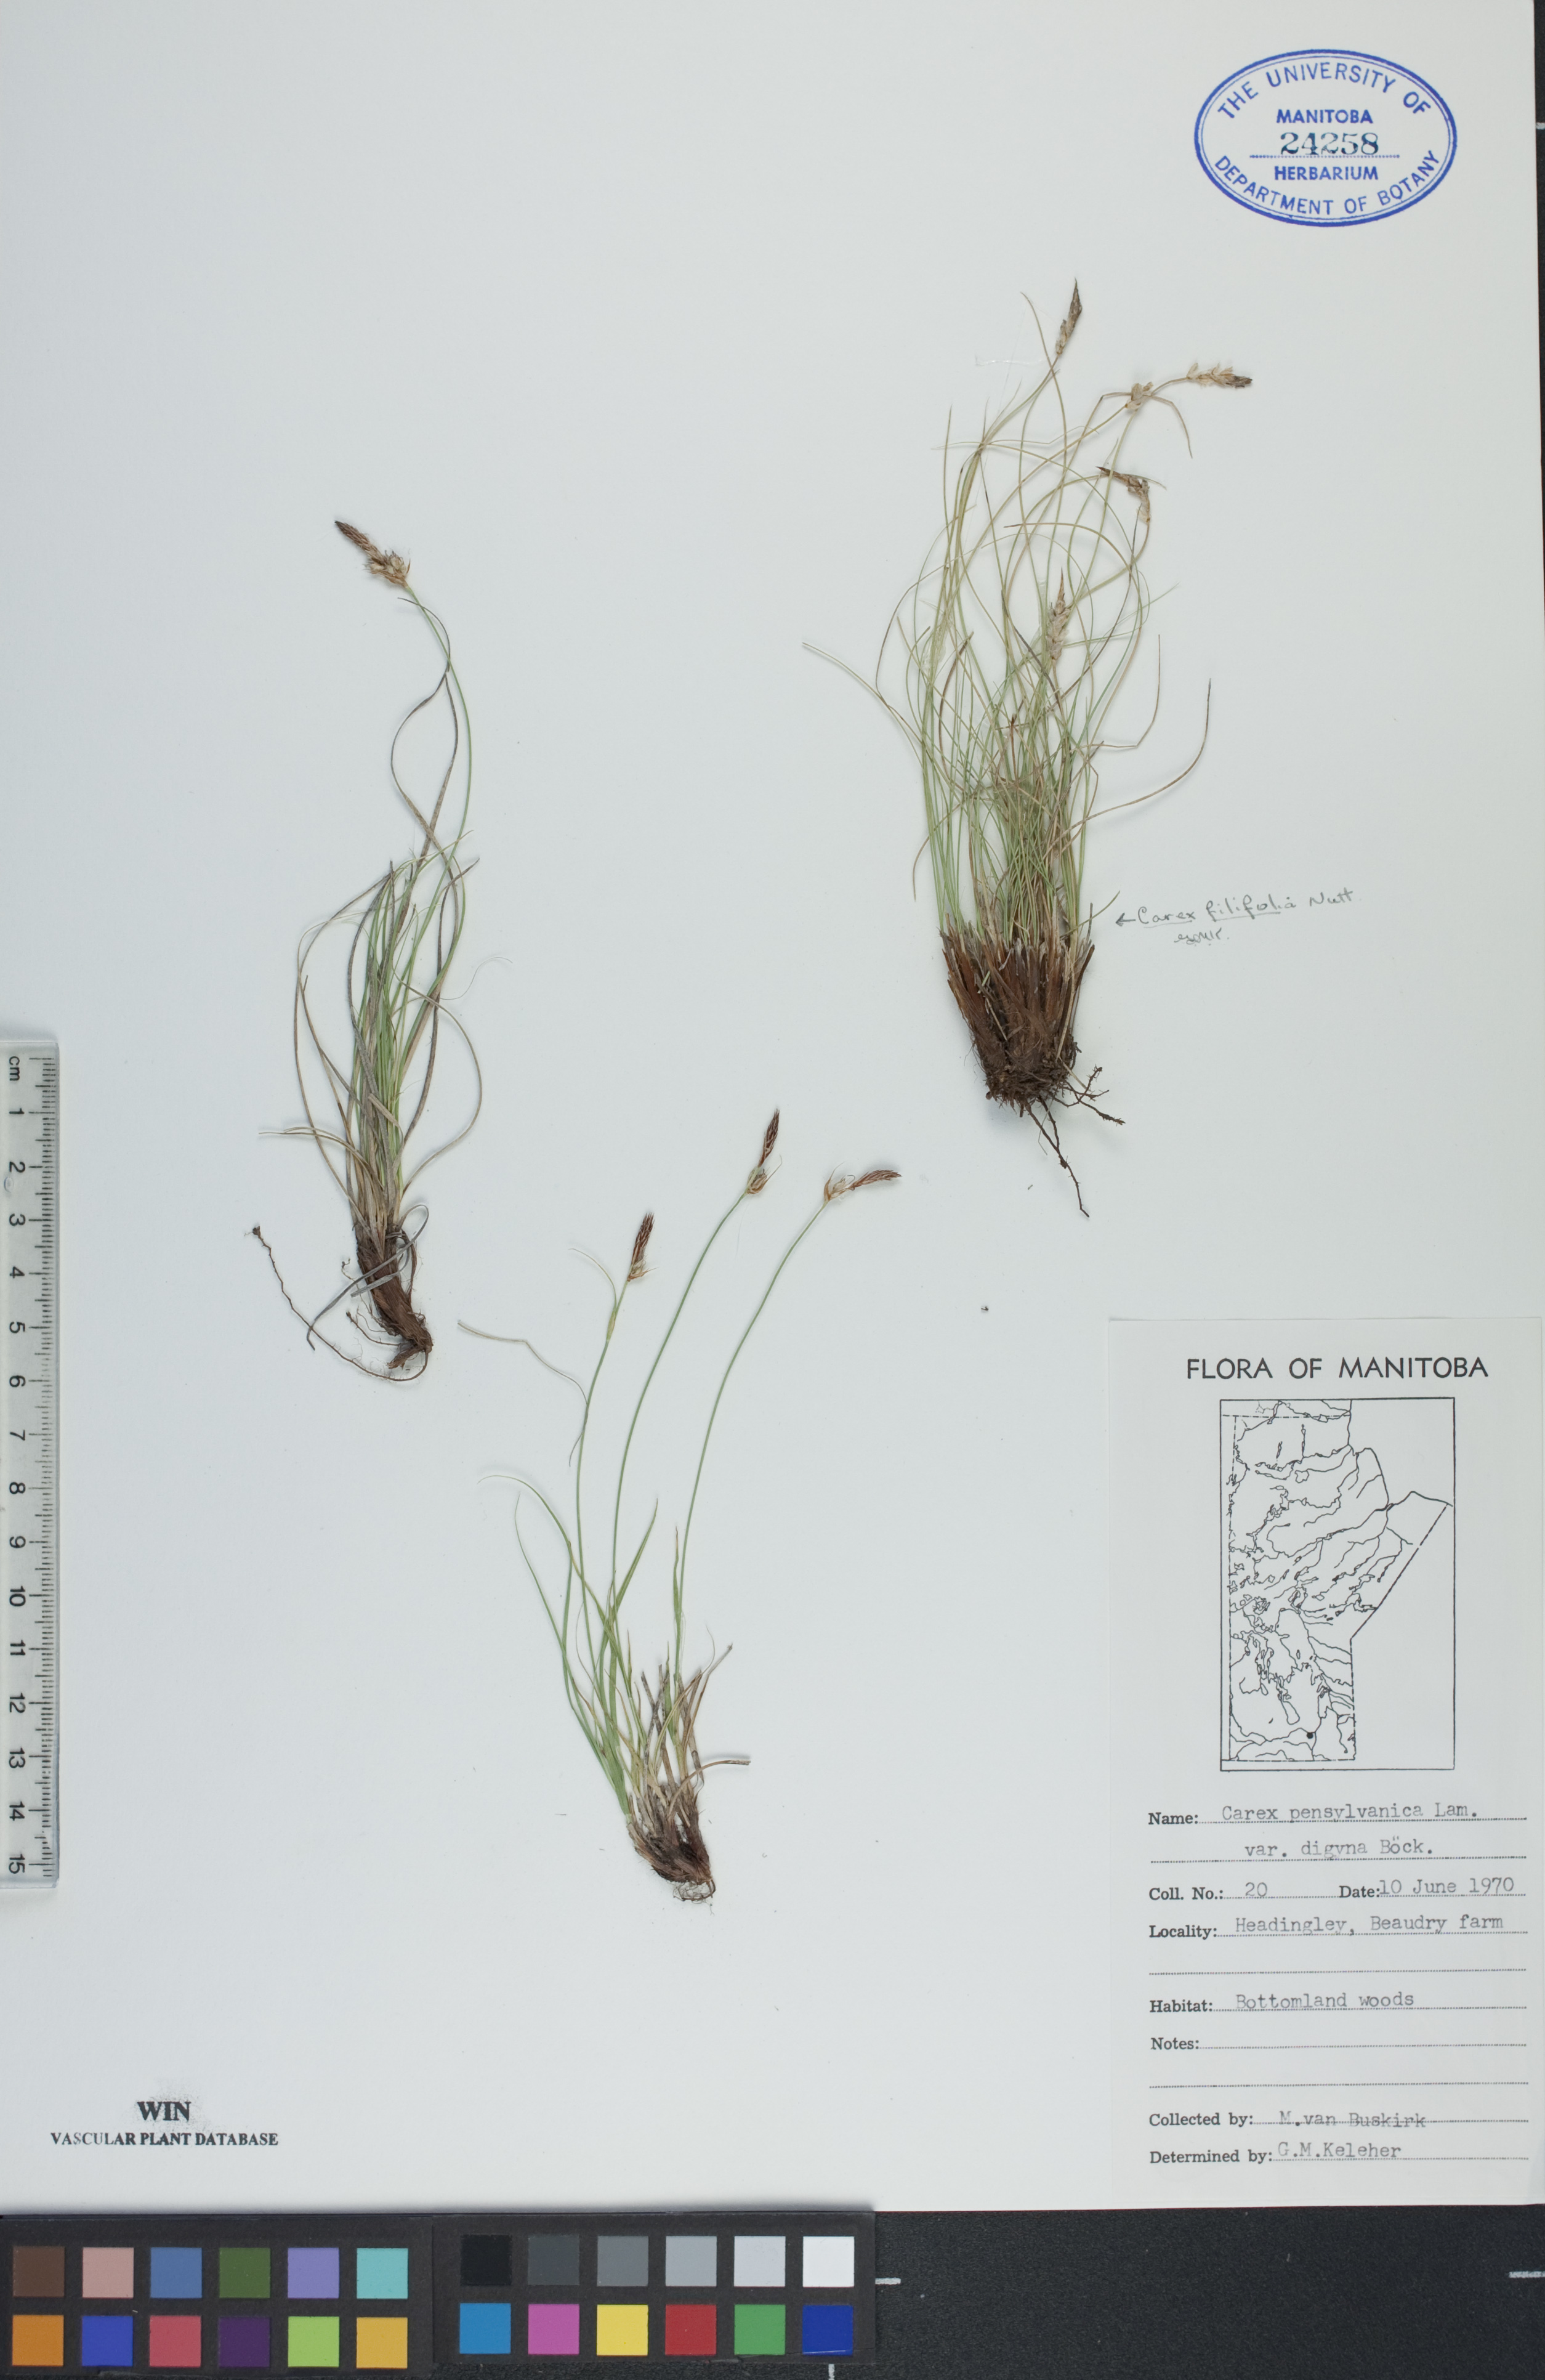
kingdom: Plantae
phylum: Tracheophyta
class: Liliopsida
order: Poales
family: Cyperaceae
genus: Carex
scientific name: Carex inops
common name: Long-stolon sedge
